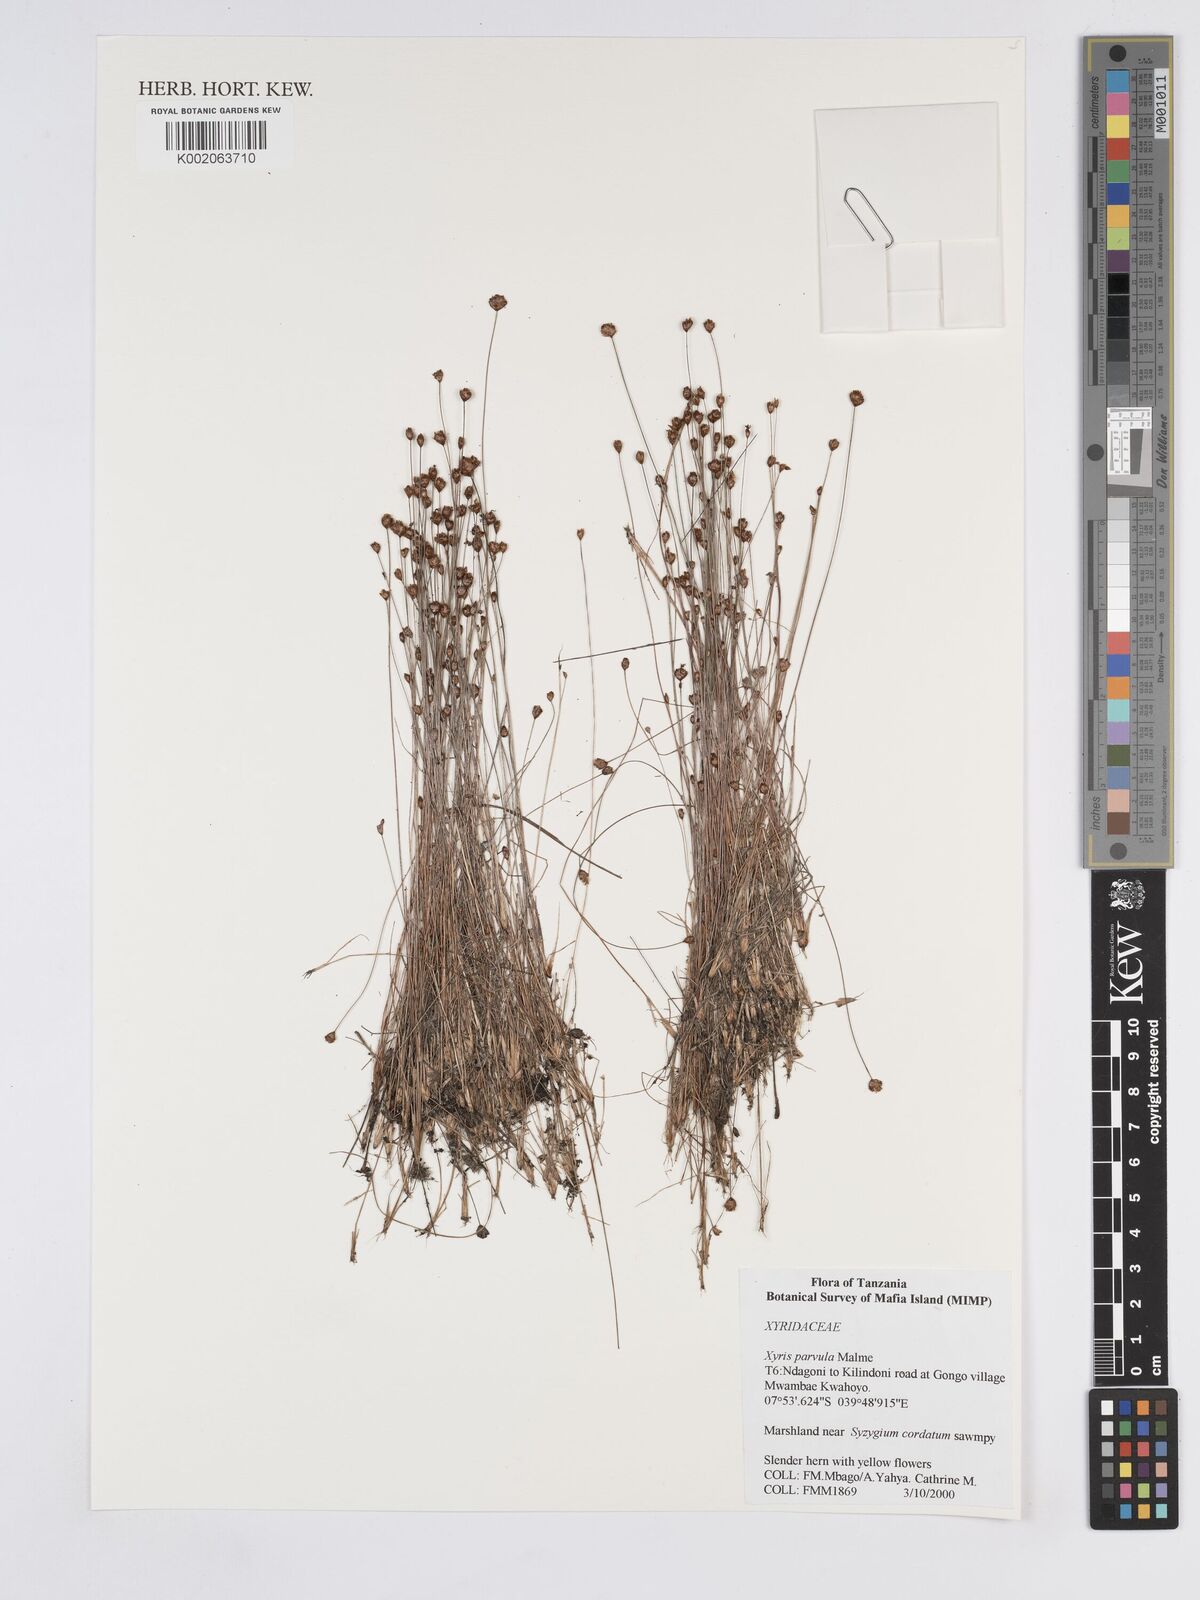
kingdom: Plantae
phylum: Tracheophyta
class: Liliopsida
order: Poales
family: Xyridaceae
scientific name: Xyridaceae
